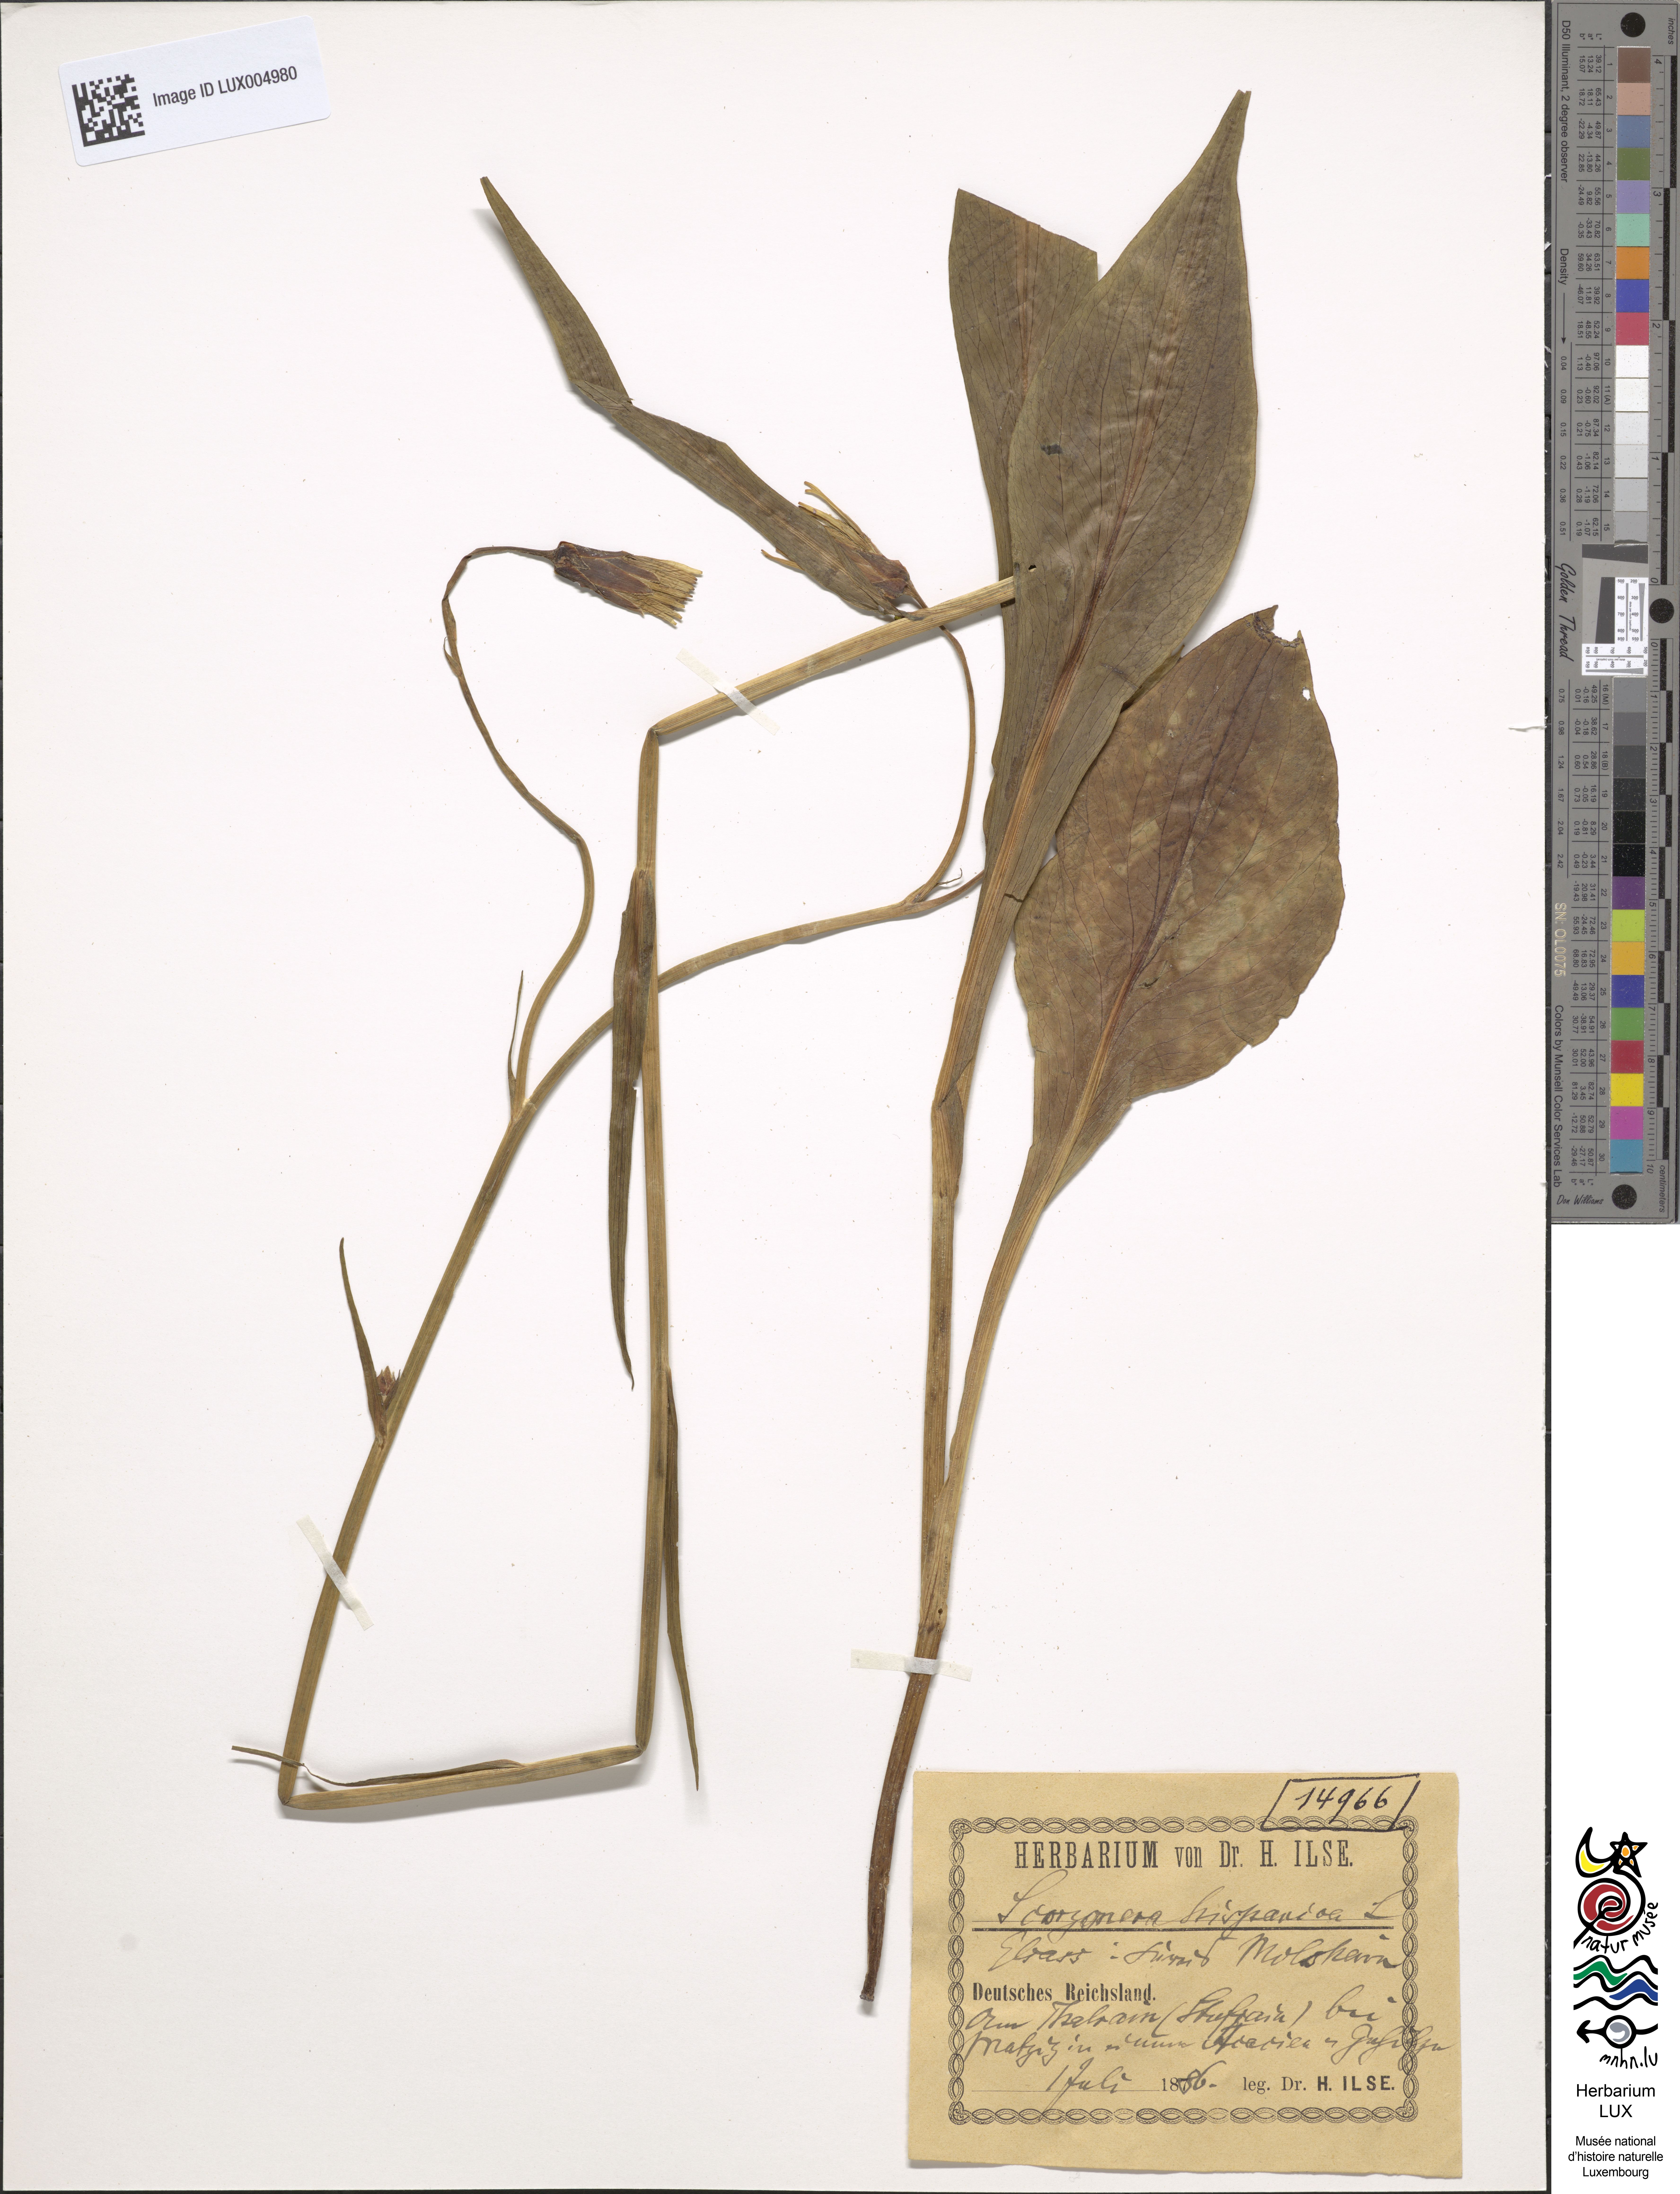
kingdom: Plantae
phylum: Tracheophyta
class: Magnoliopsida
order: Asterales
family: Asteraceae
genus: Pseudopodospermum
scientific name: Pseudopodospermum hispanicum
